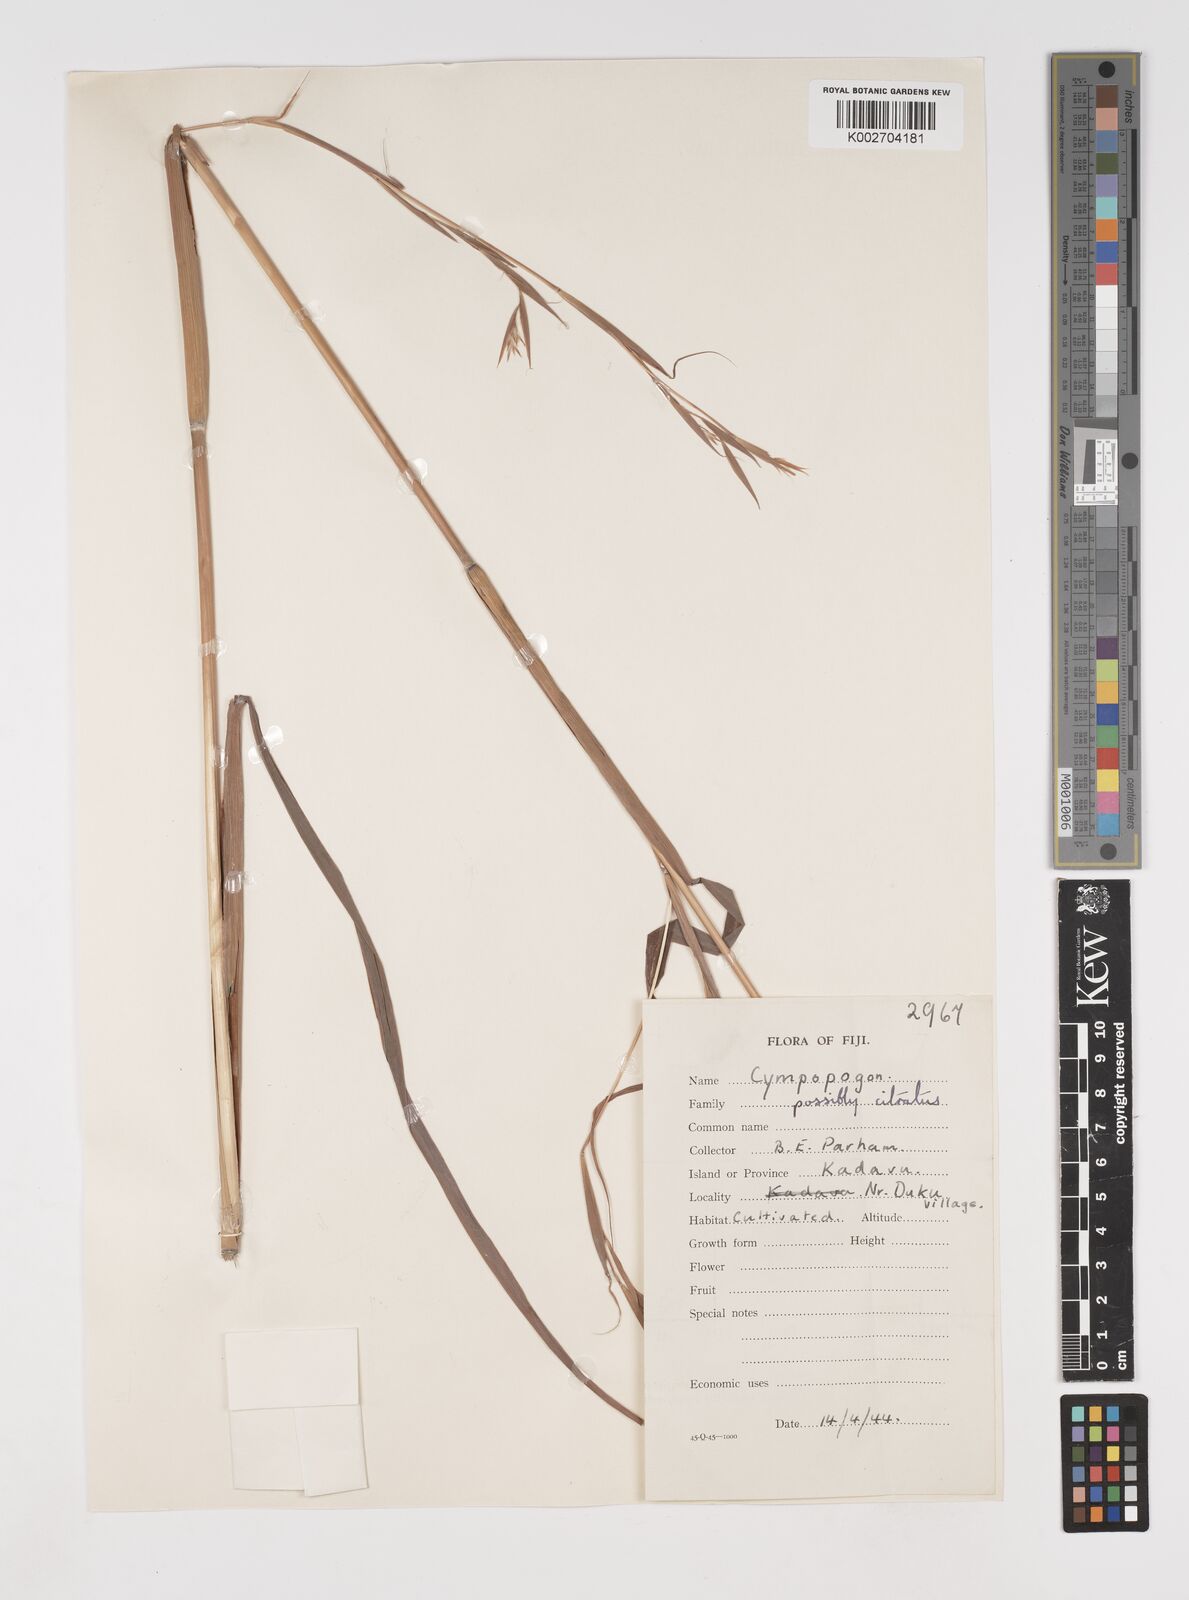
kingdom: Plantae
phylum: Tracheophyta
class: Liliopsida
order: Poales
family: Poaceae
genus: Cymbopogon
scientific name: Cymbopogon nardus
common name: Giant turpentine grass
